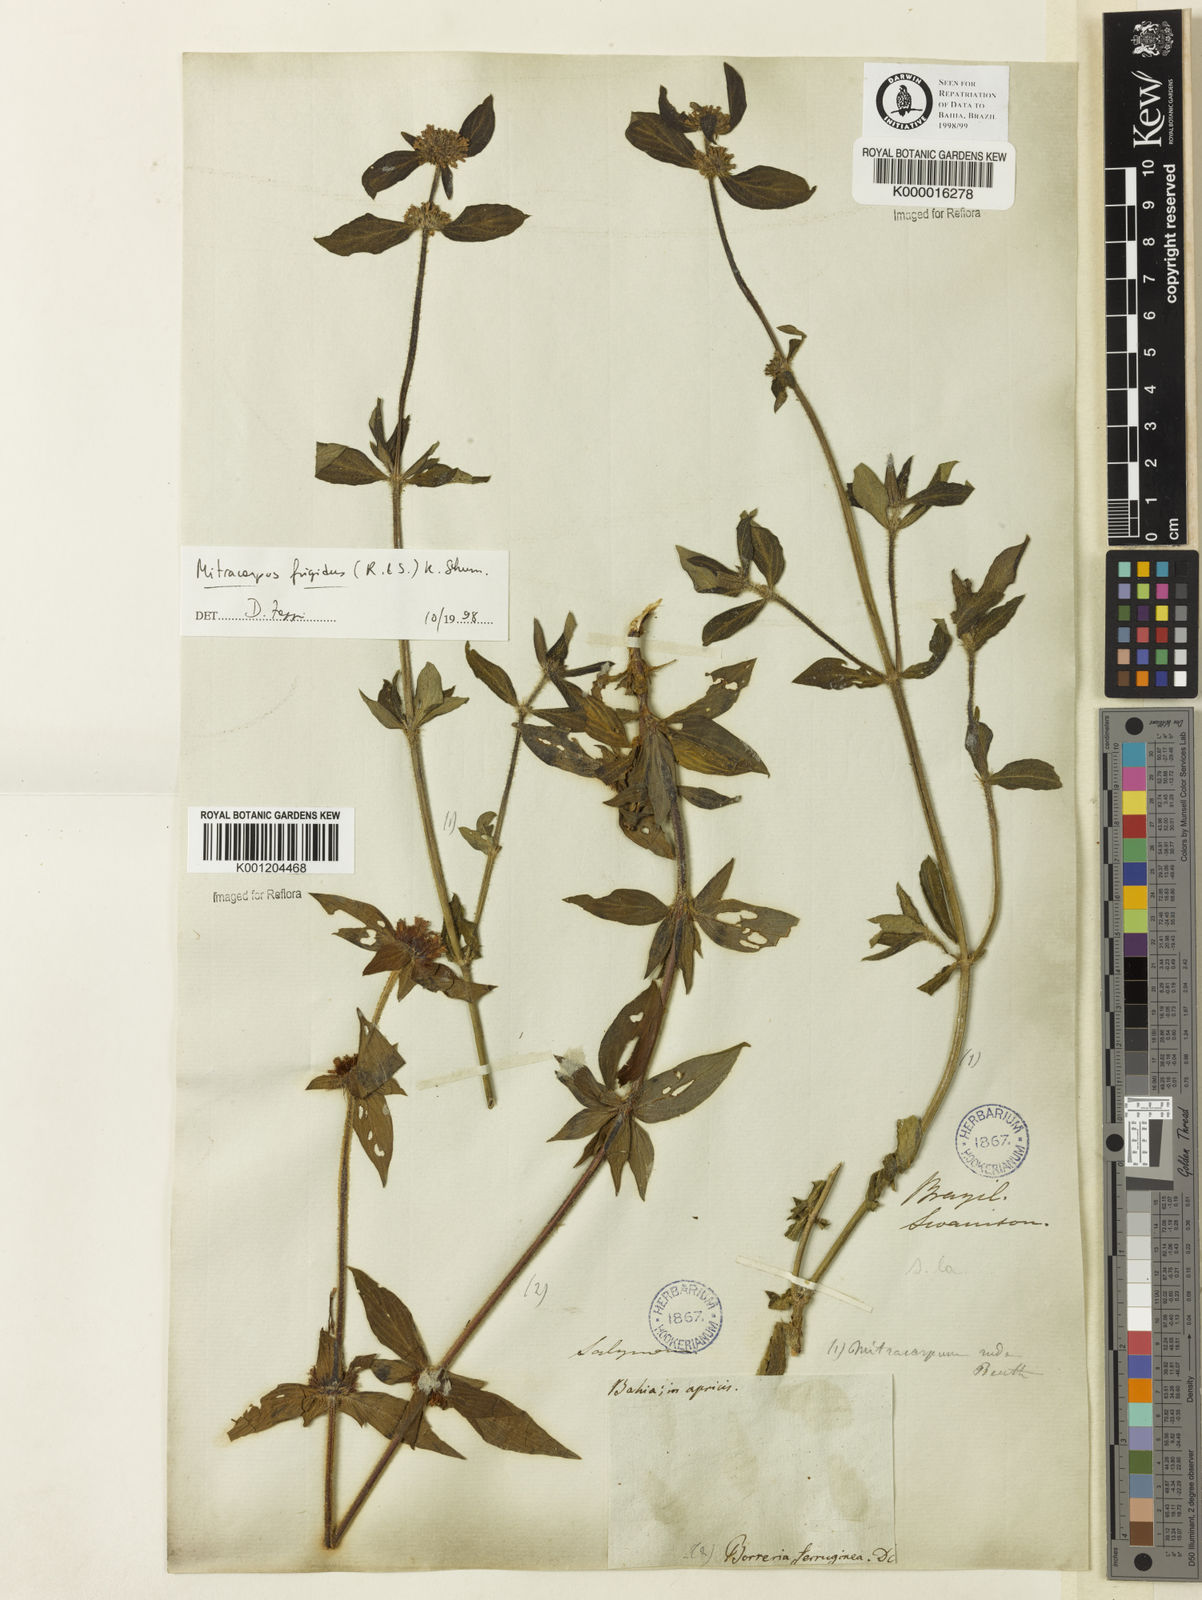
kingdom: Plantae
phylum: Tracheophyta
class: Magnoliopsida
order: Gentianales
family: Rubiaceae
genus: Mitracarpus
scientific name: Mitracarpus frigidus
